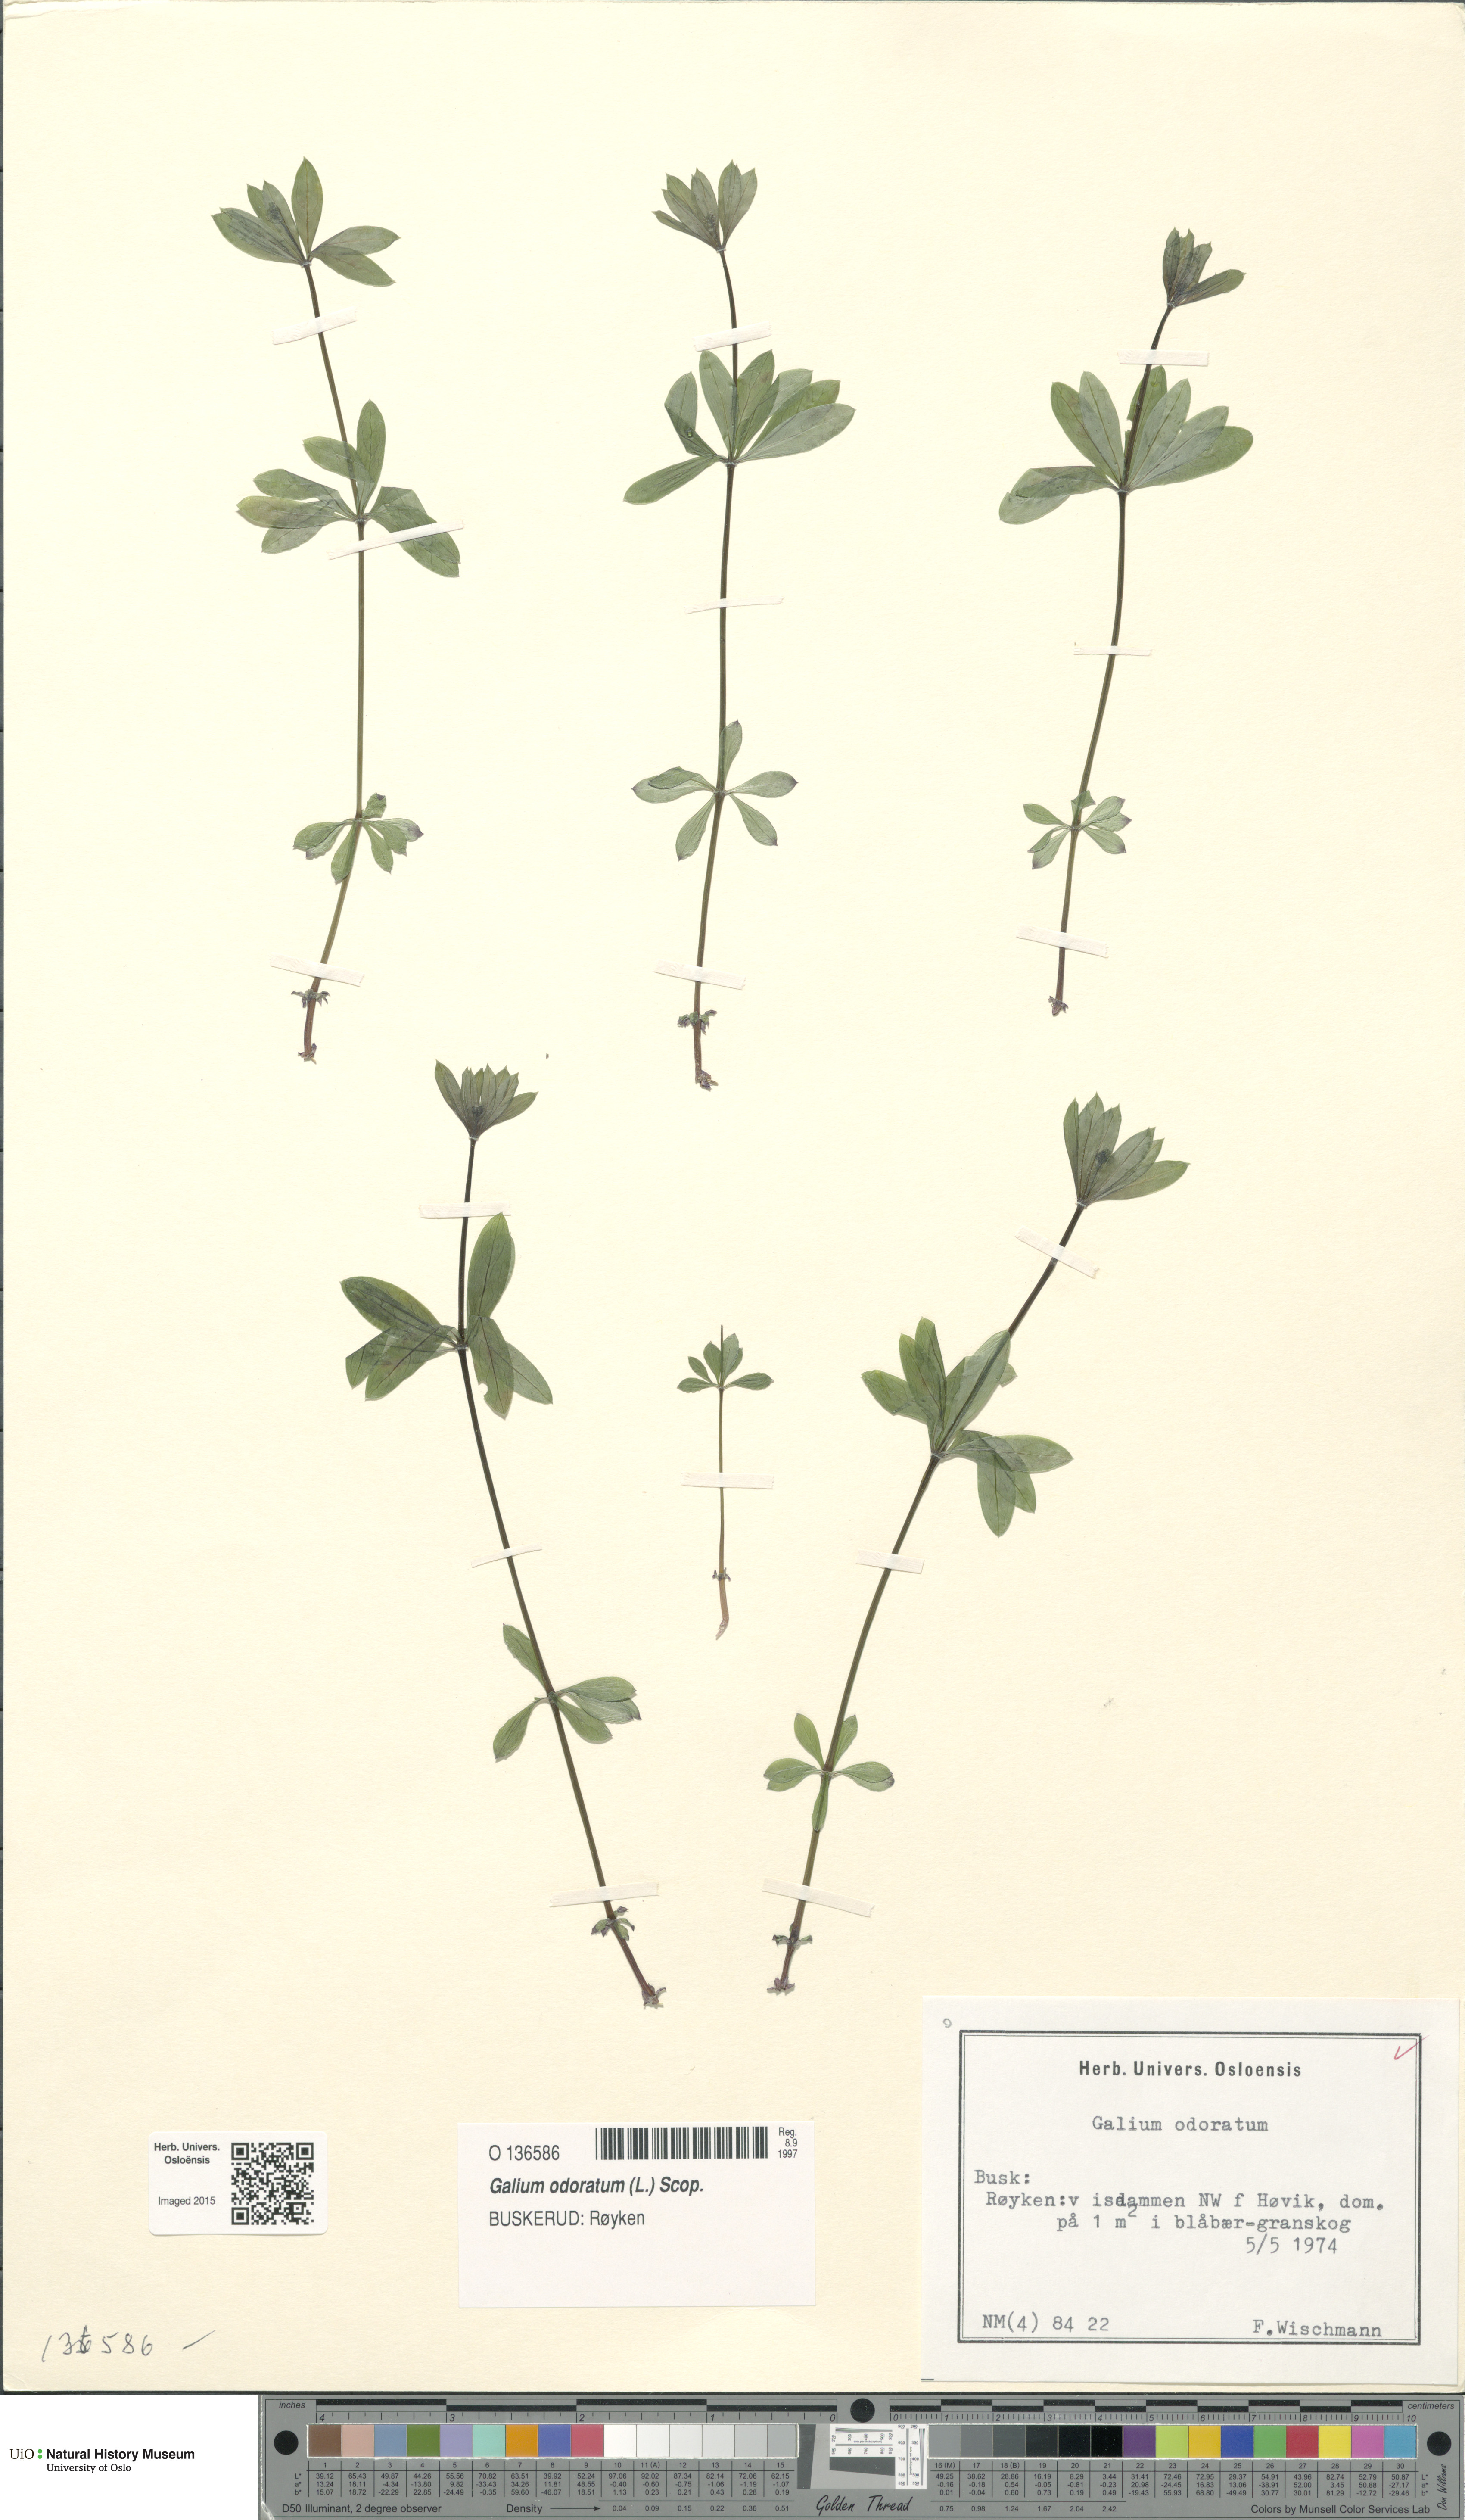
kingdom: Plantae
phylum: Tracheophyta
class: Magnoliopsida
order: Gentianales
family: Rubiaceae
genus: Galium
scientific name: Galium odoratum
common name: Sweet woodruff
